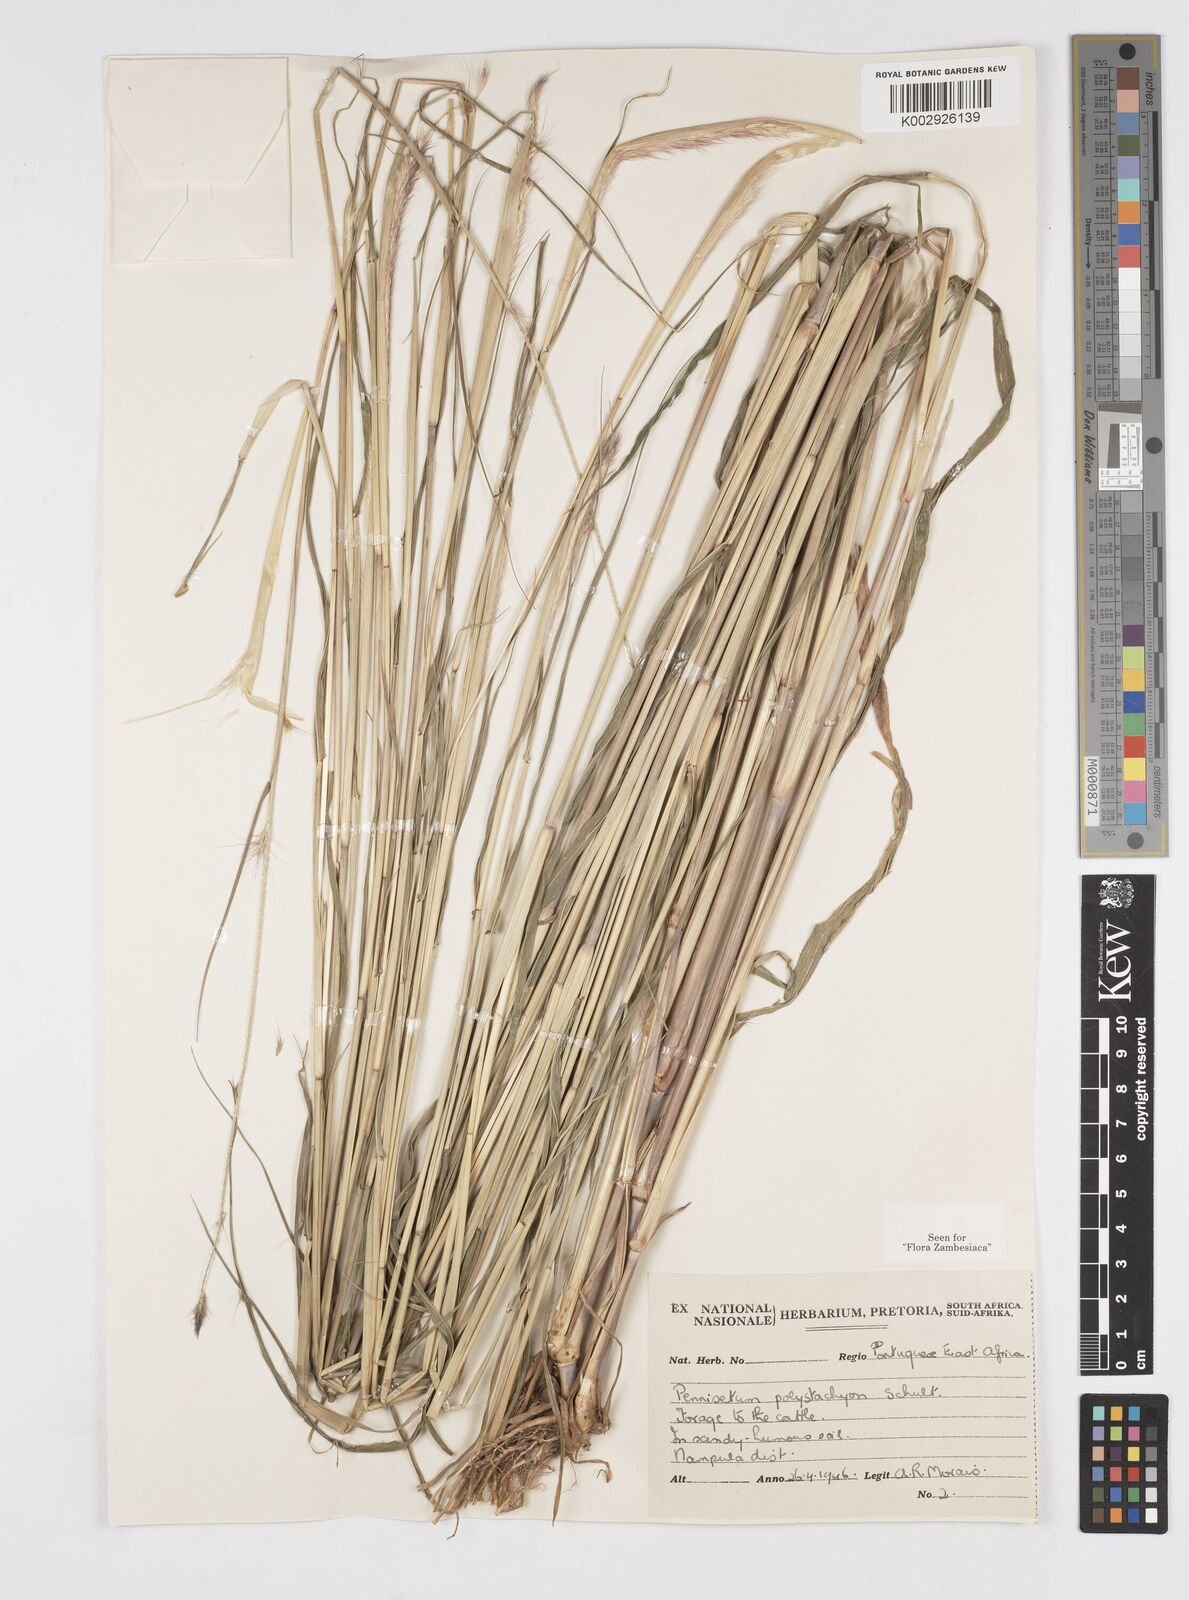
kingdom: Plantae
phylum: Tracheophyta
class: Liliopsida
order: Poales
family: Poaceae
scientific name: Poaceae
